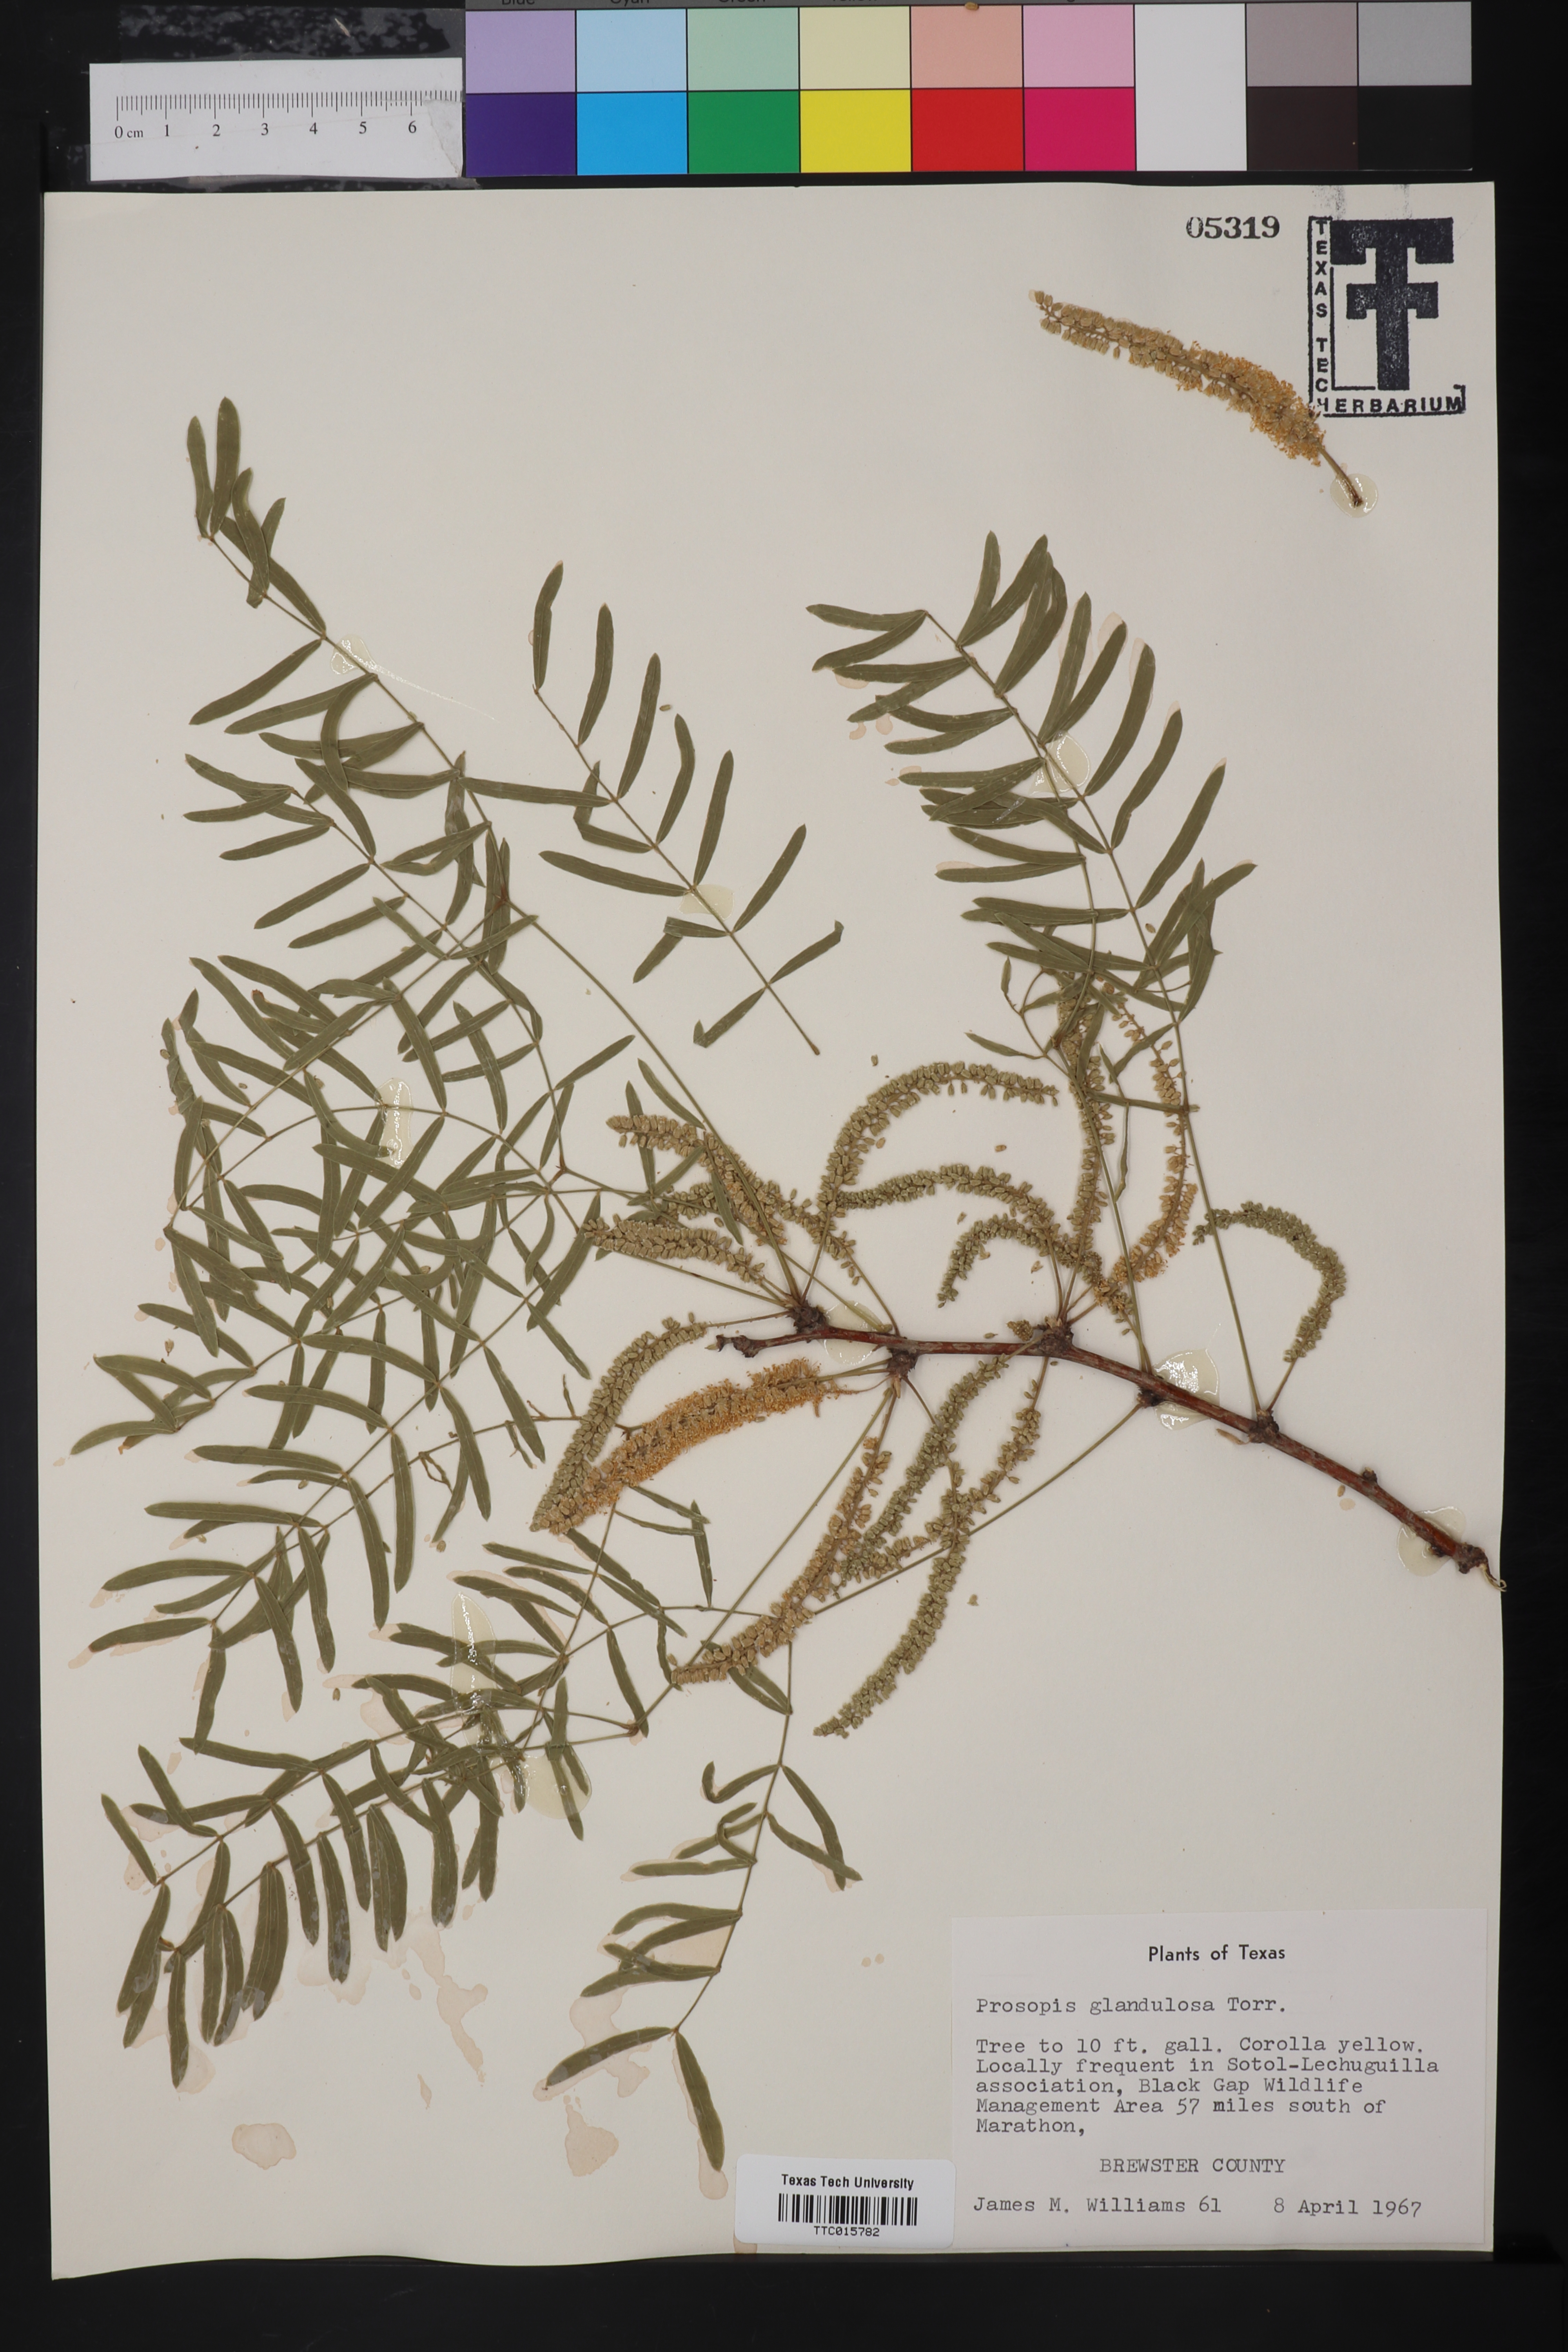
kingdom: Plantae
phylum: Tracheophyta
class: Magnoliopsida
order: Fabales
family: Fabaceae
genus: Prosopis
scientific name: Prosopis glandulosa
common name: Honey mesquite
